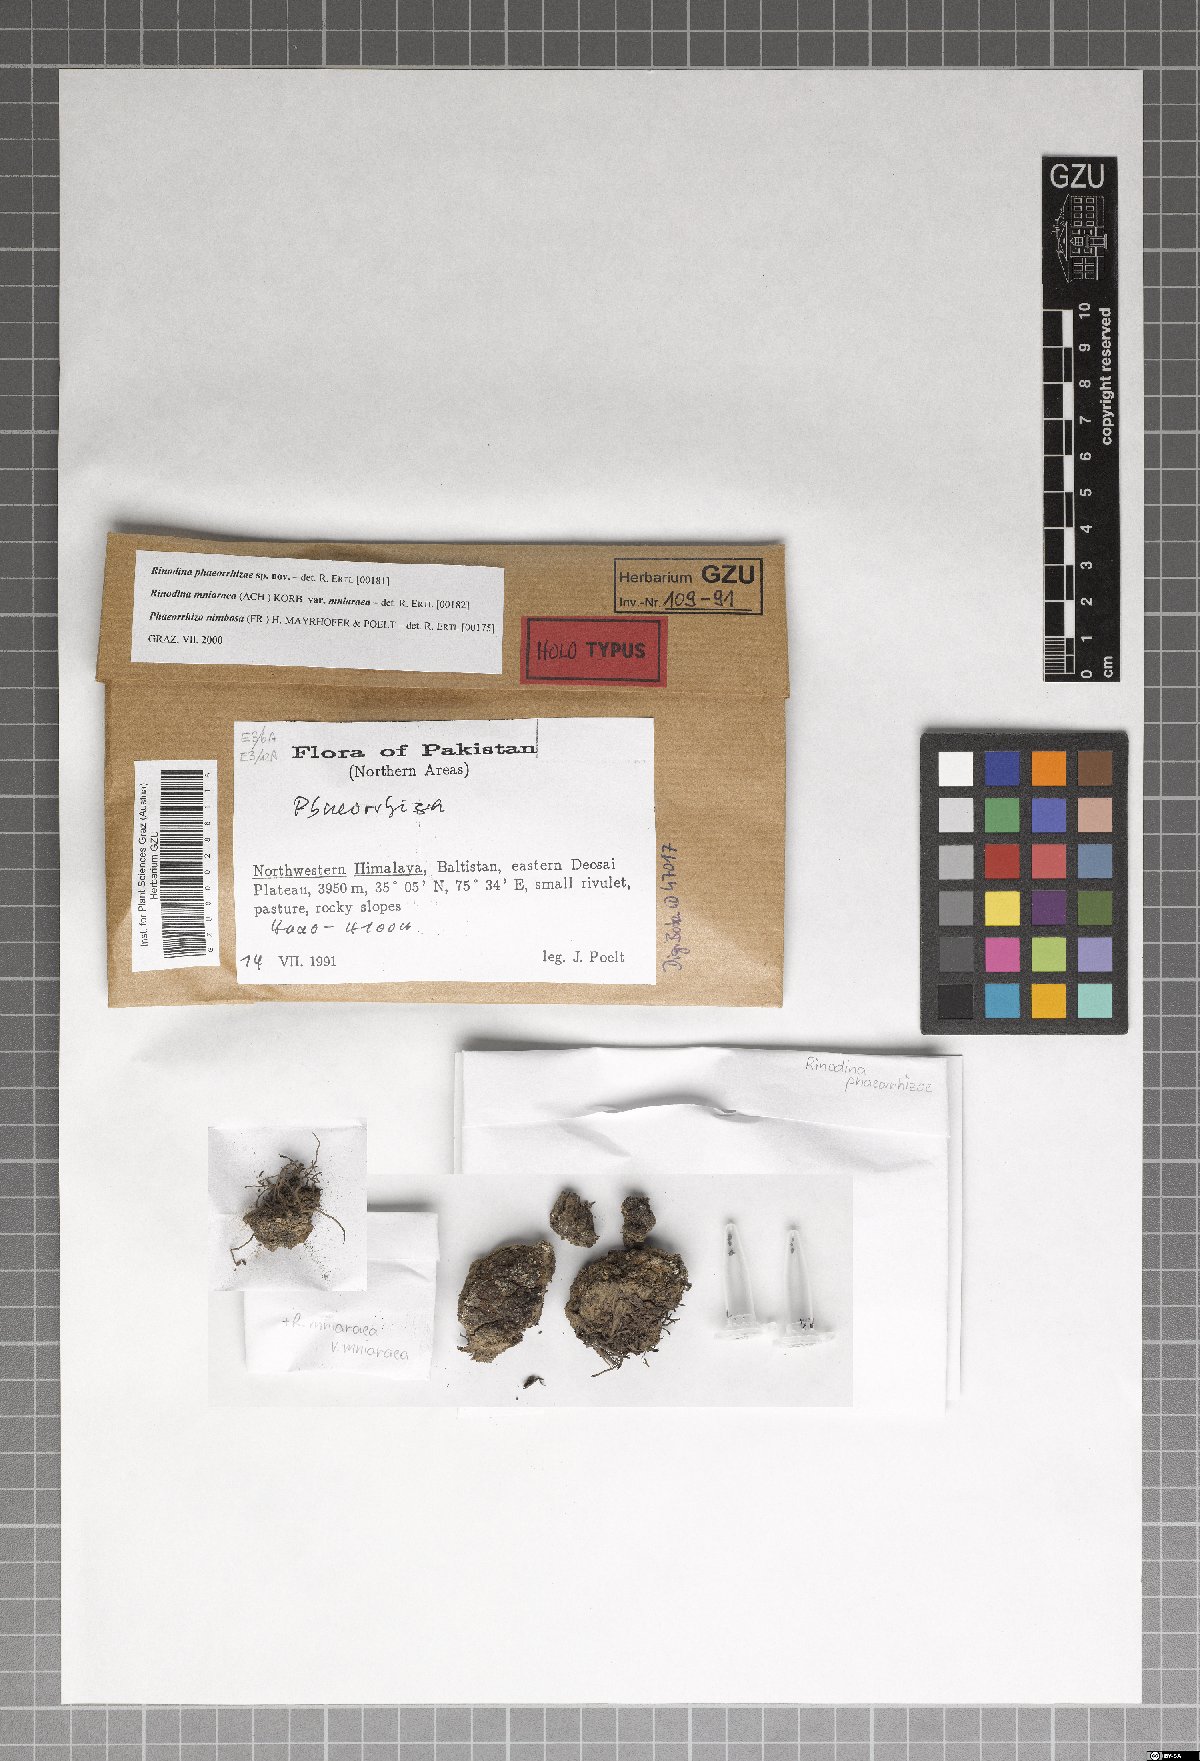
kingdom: Fungi
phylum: Ascomycota
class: Lecanoromycetes
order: Caliciales
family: Physciaceae
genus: Rinodina
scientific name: Rinodina
